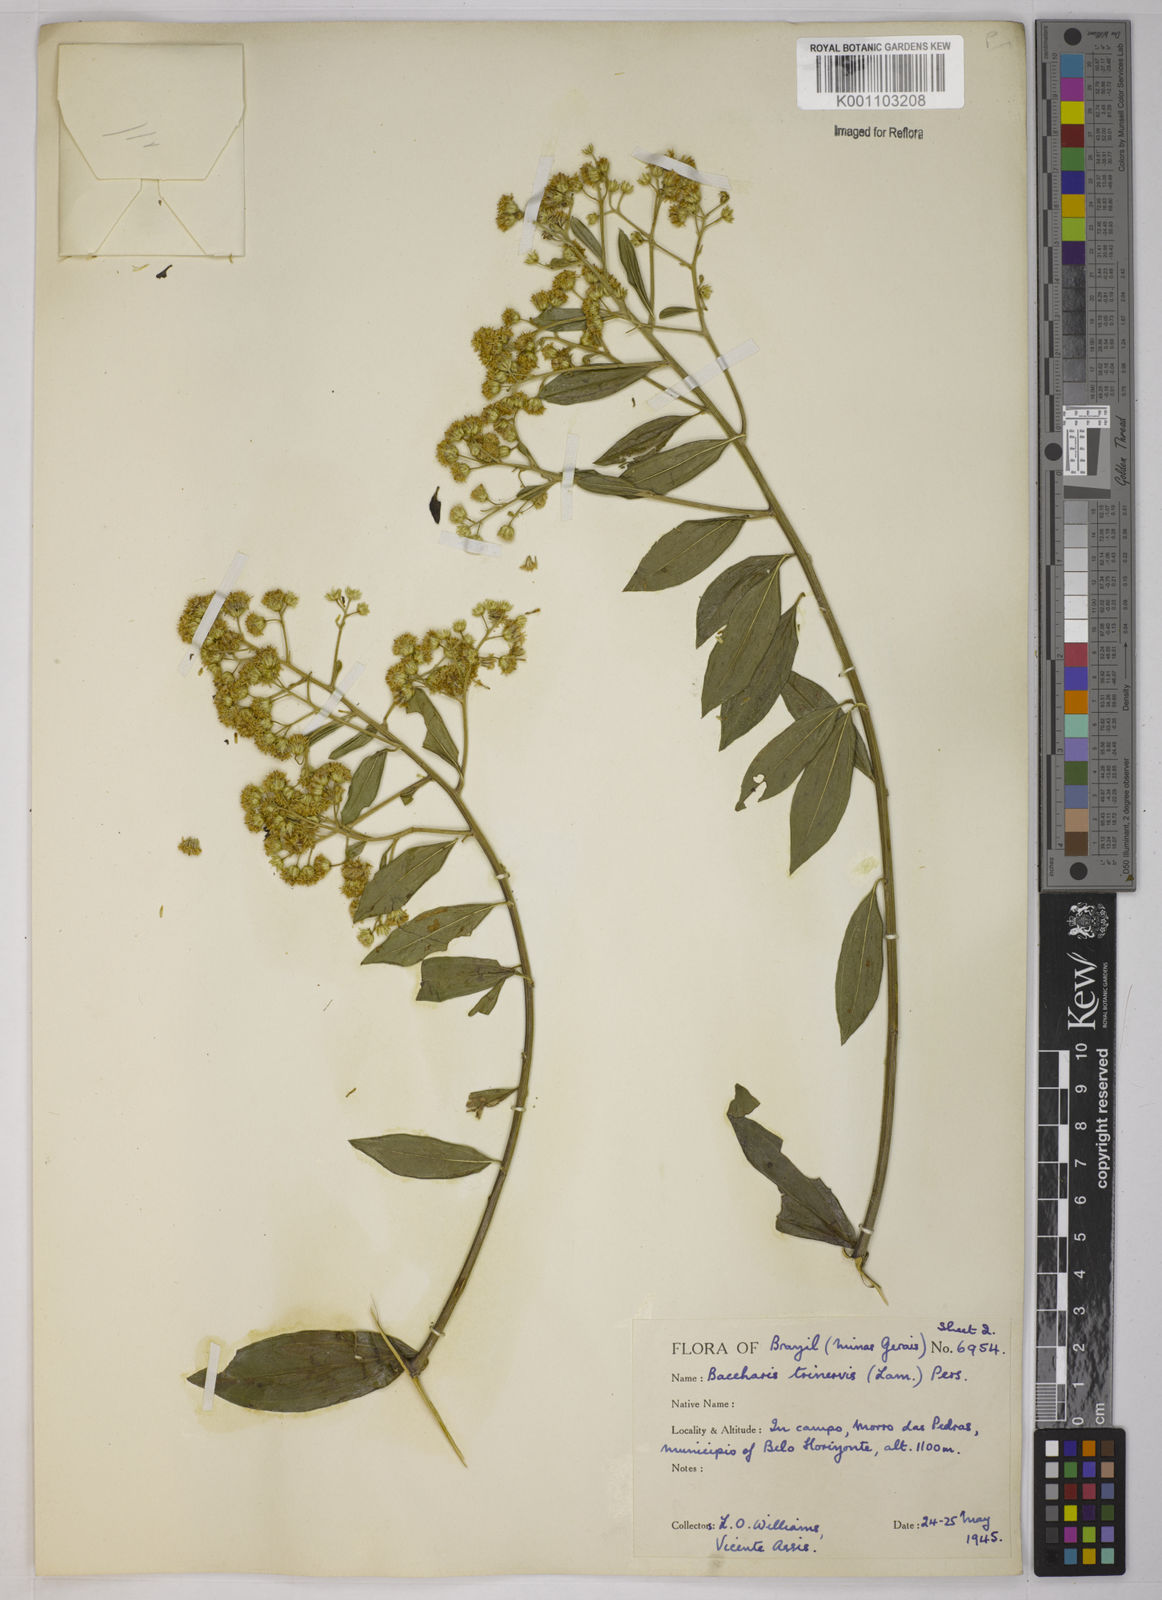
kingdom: Plantae
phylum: Tracheophyta
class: Magnoliopsida
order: Asterales
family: Asteraceae
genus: Baccharis
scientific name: Baccharis trinervis
